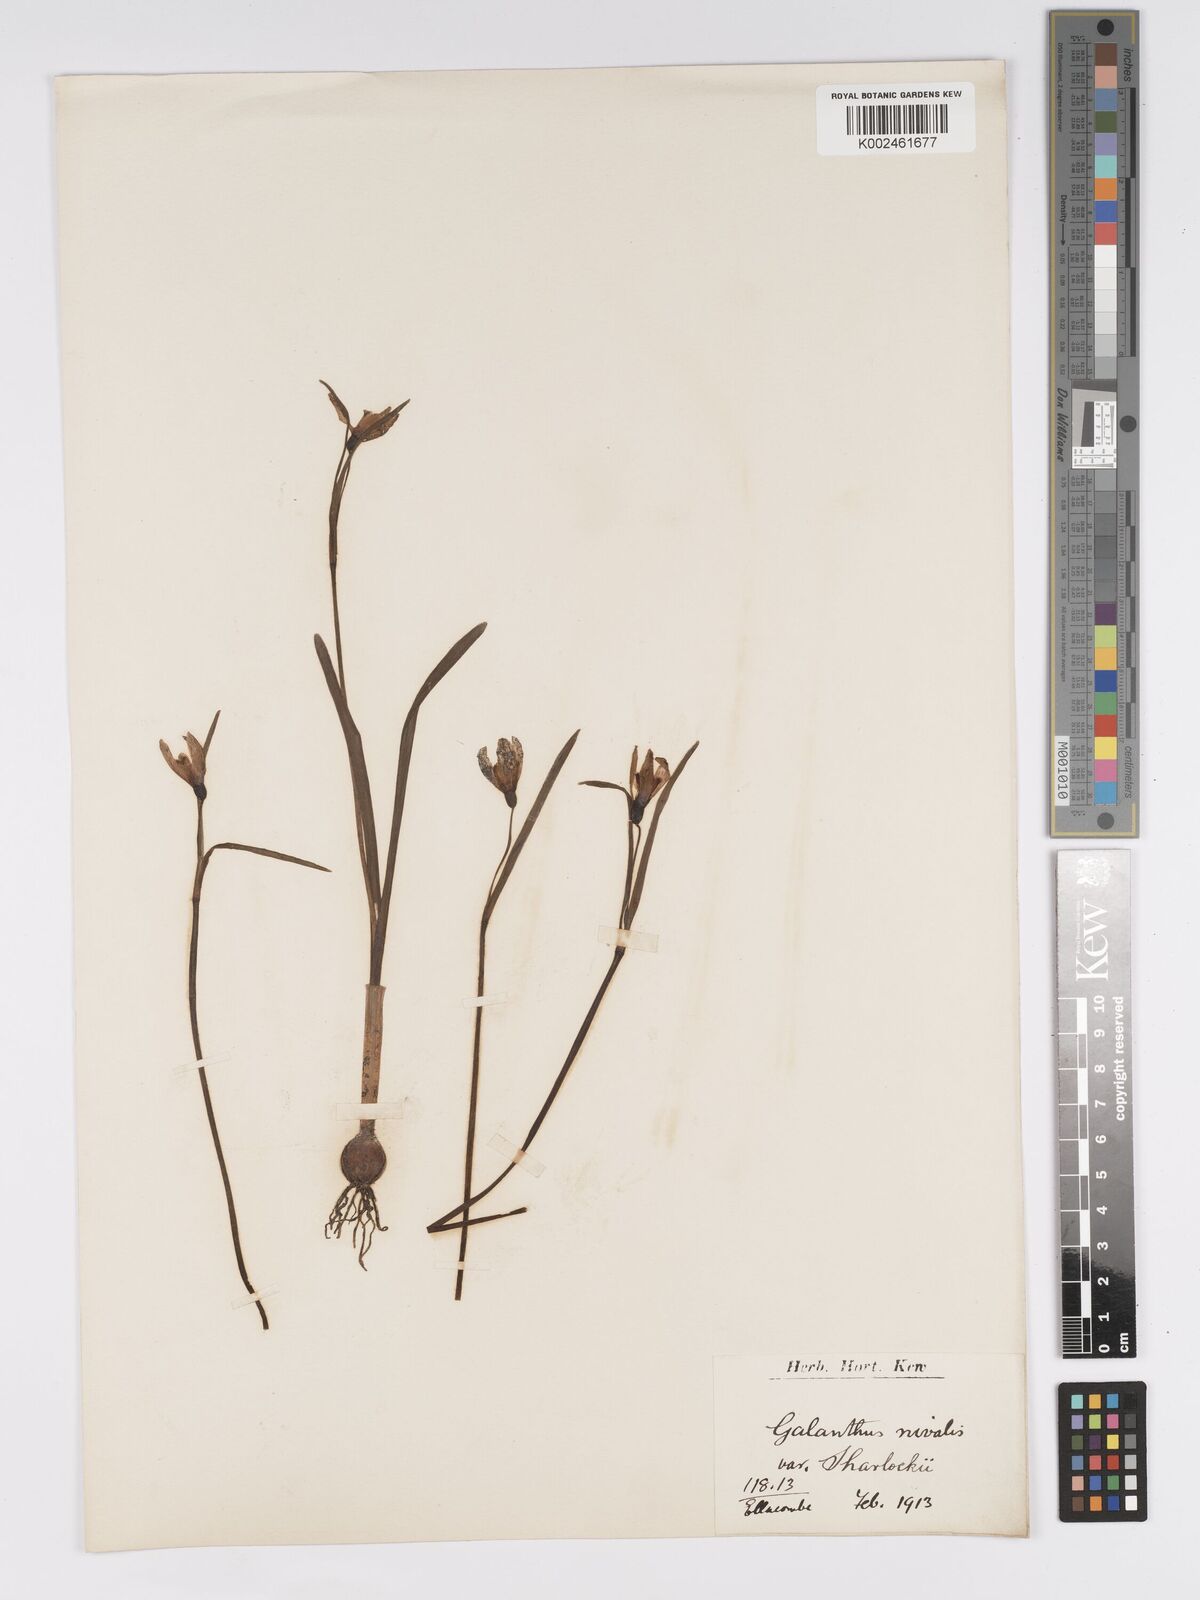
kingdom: Plantae
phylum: Tracheophyta
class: Liliopsida
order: Asparagales
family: Amaryllidaceae
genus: Galanthus
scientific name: Galanthus nivalis
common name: Snowdrop
